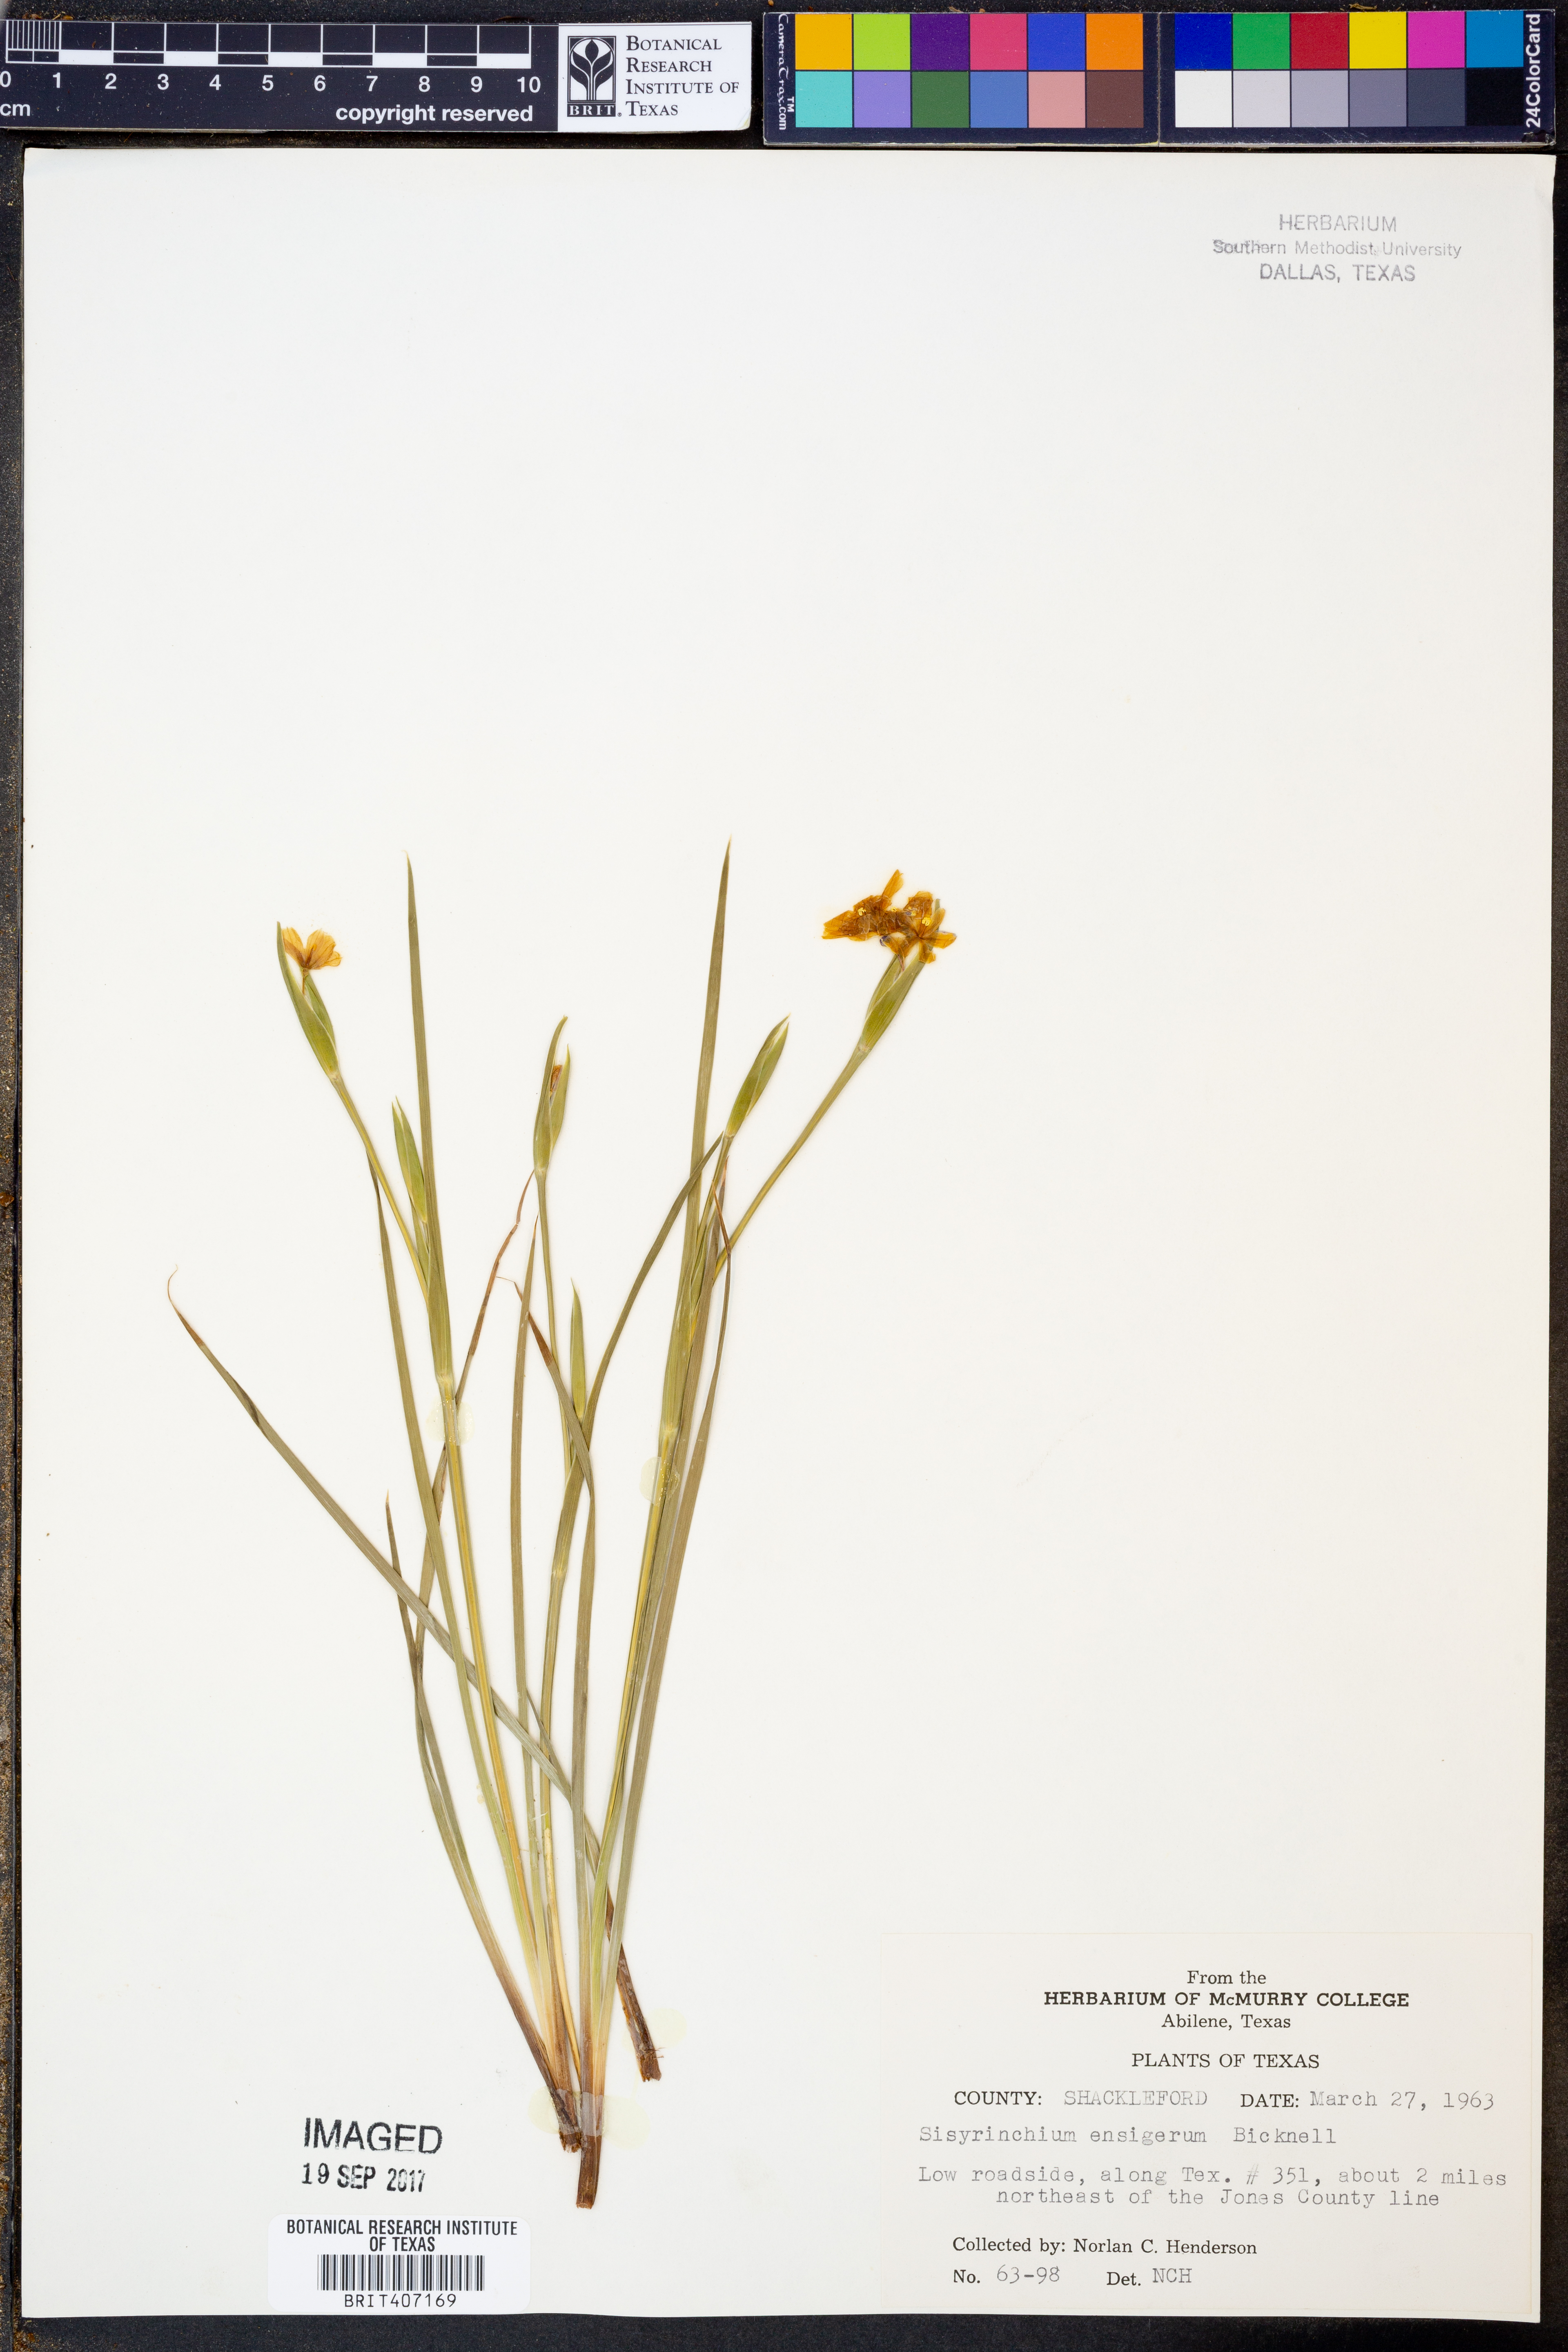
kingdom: Plantae
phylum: Tracheophyta
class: Liliopsida
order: Asparagales
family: Iridaceae
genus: Sisyrinchium
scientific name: Sisyrinchium ensigerum
